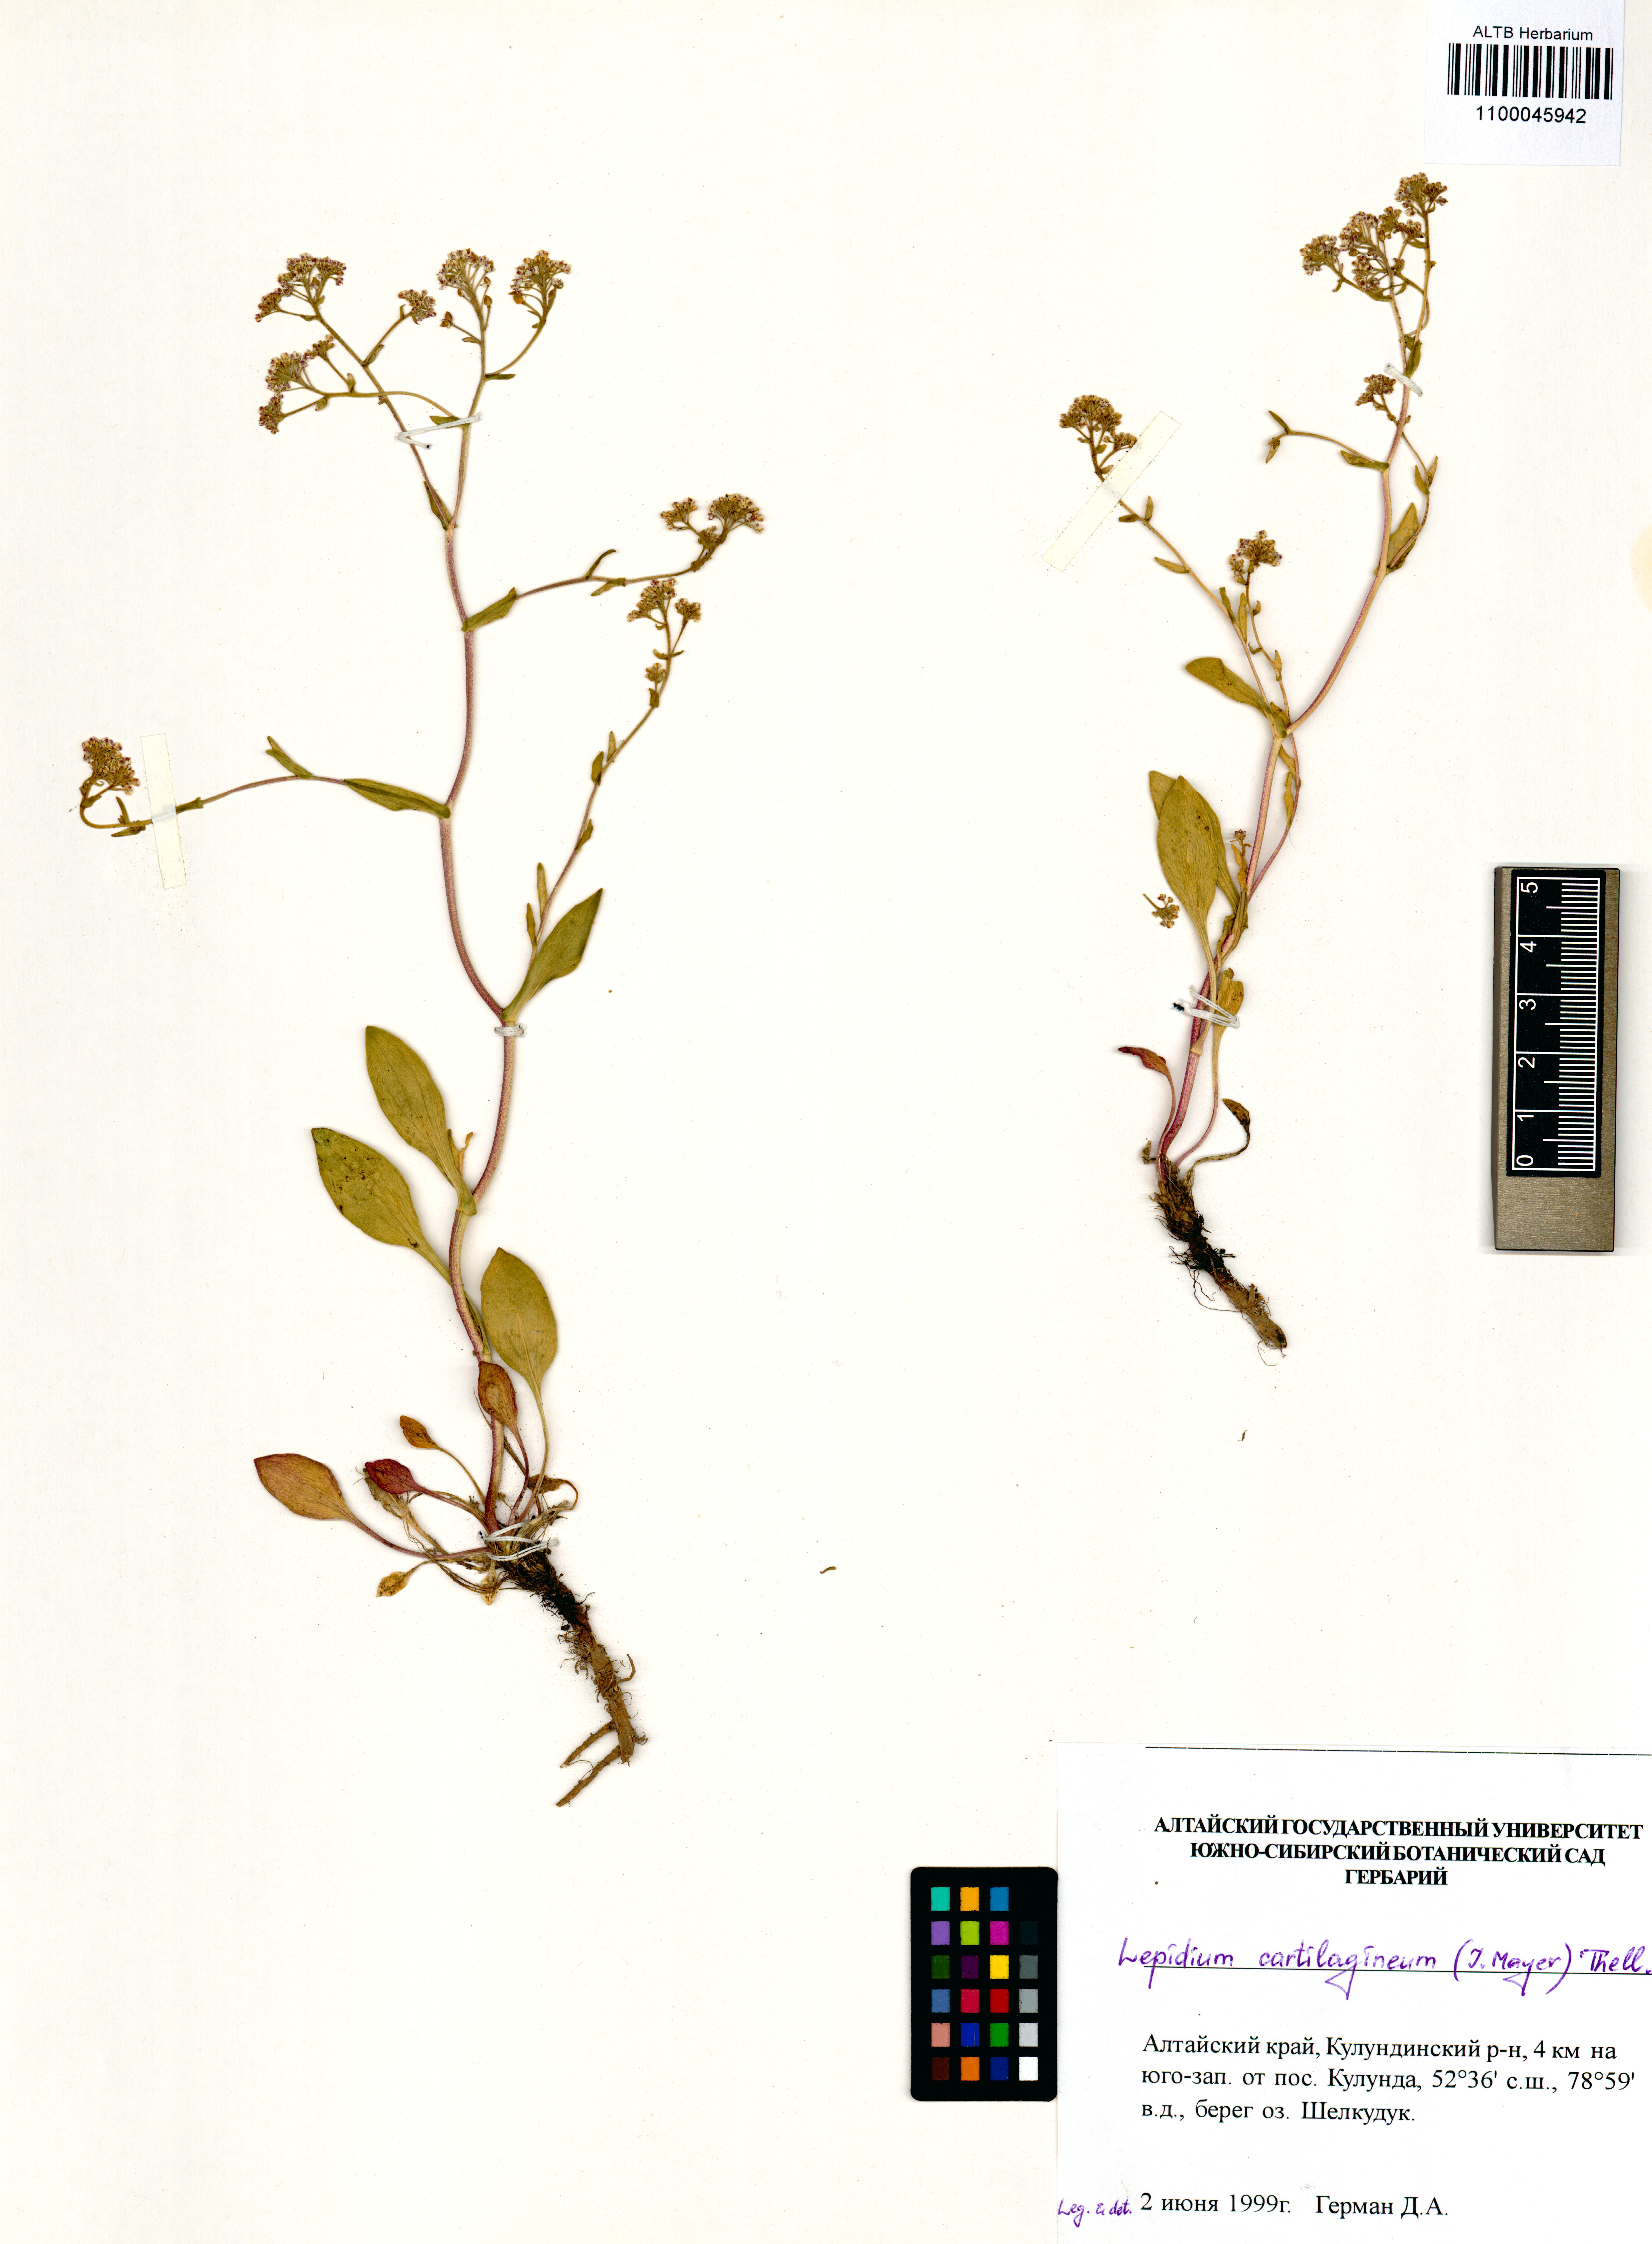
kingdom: Plantae
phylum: Tracheophyta
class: Magnoliopsida
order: Brassicales
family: Brassicaceae
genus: Lepidium
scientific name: Lepidium cartilagineum
